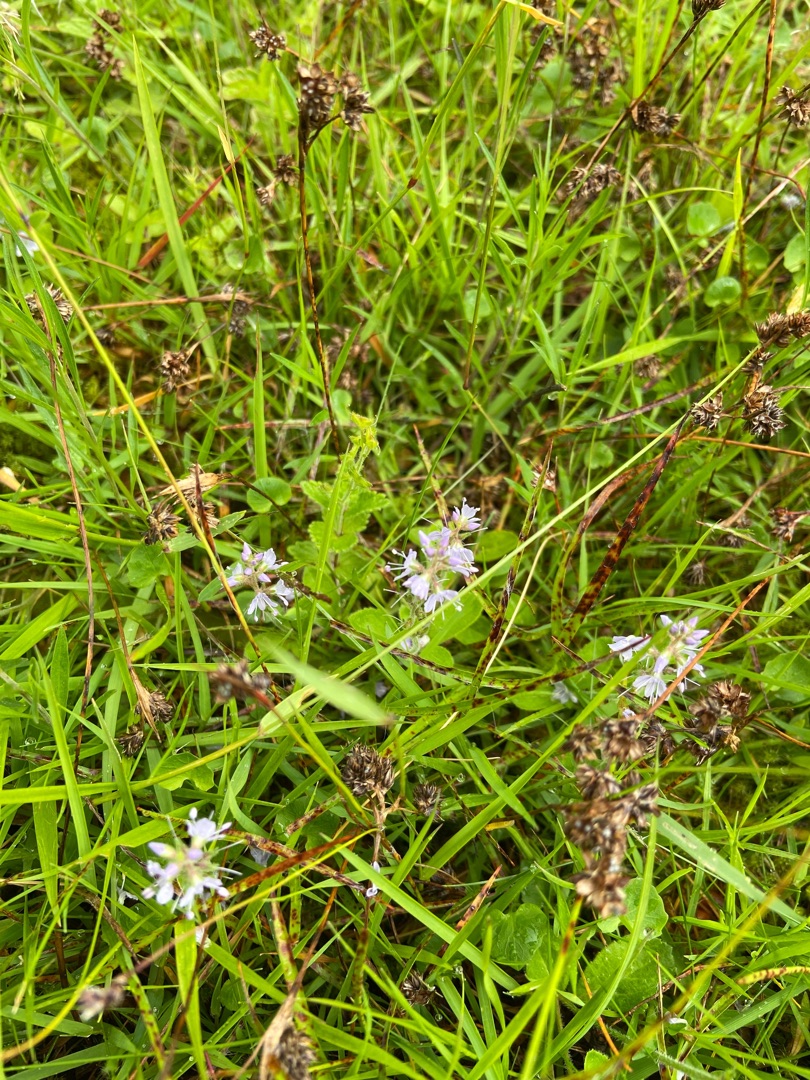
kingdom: Plantae
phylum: Tracheophyta
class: Magnoliopsida
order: Lamiales
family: Plantaginaceae
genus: Veronica
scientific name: Veronica officinalis
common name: Læge-ærenpris
